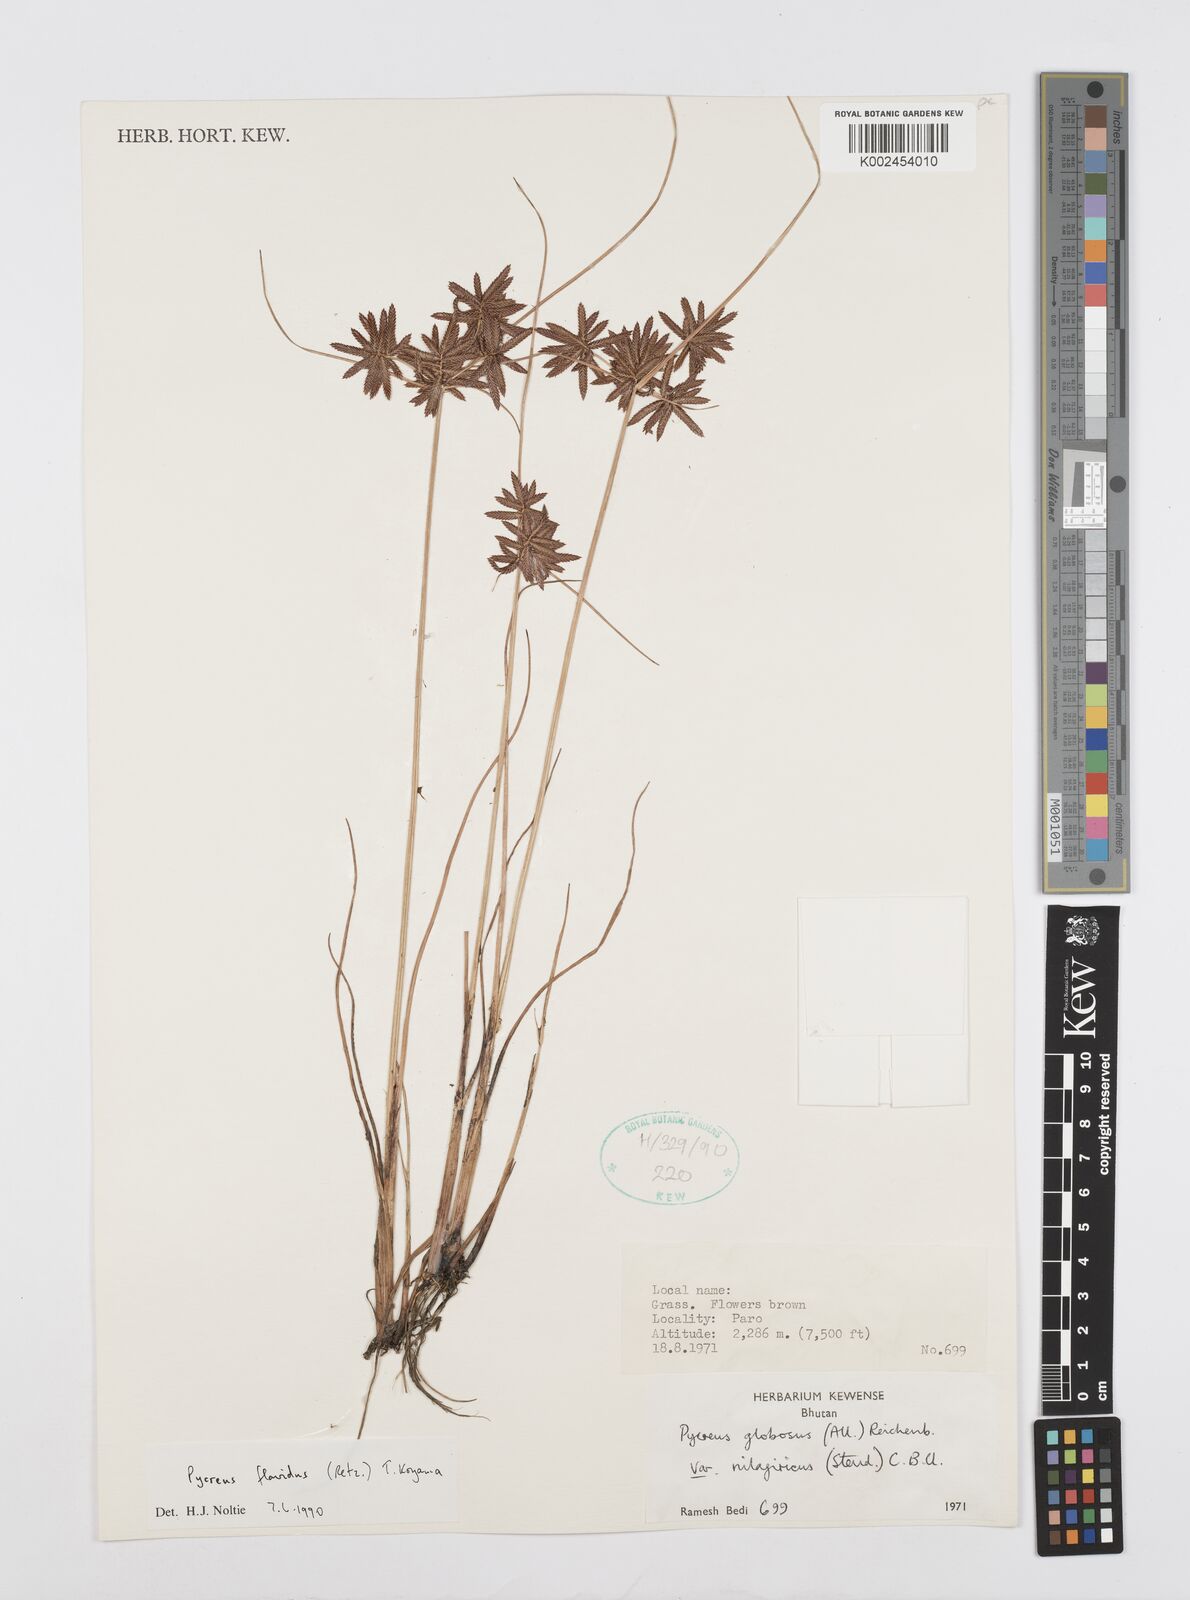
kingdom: Plantae
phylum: Tracheophyta
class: Liliopsida
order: Poales
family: Cyperaceae
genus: Cyperus
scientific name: Cyperus flavidus
